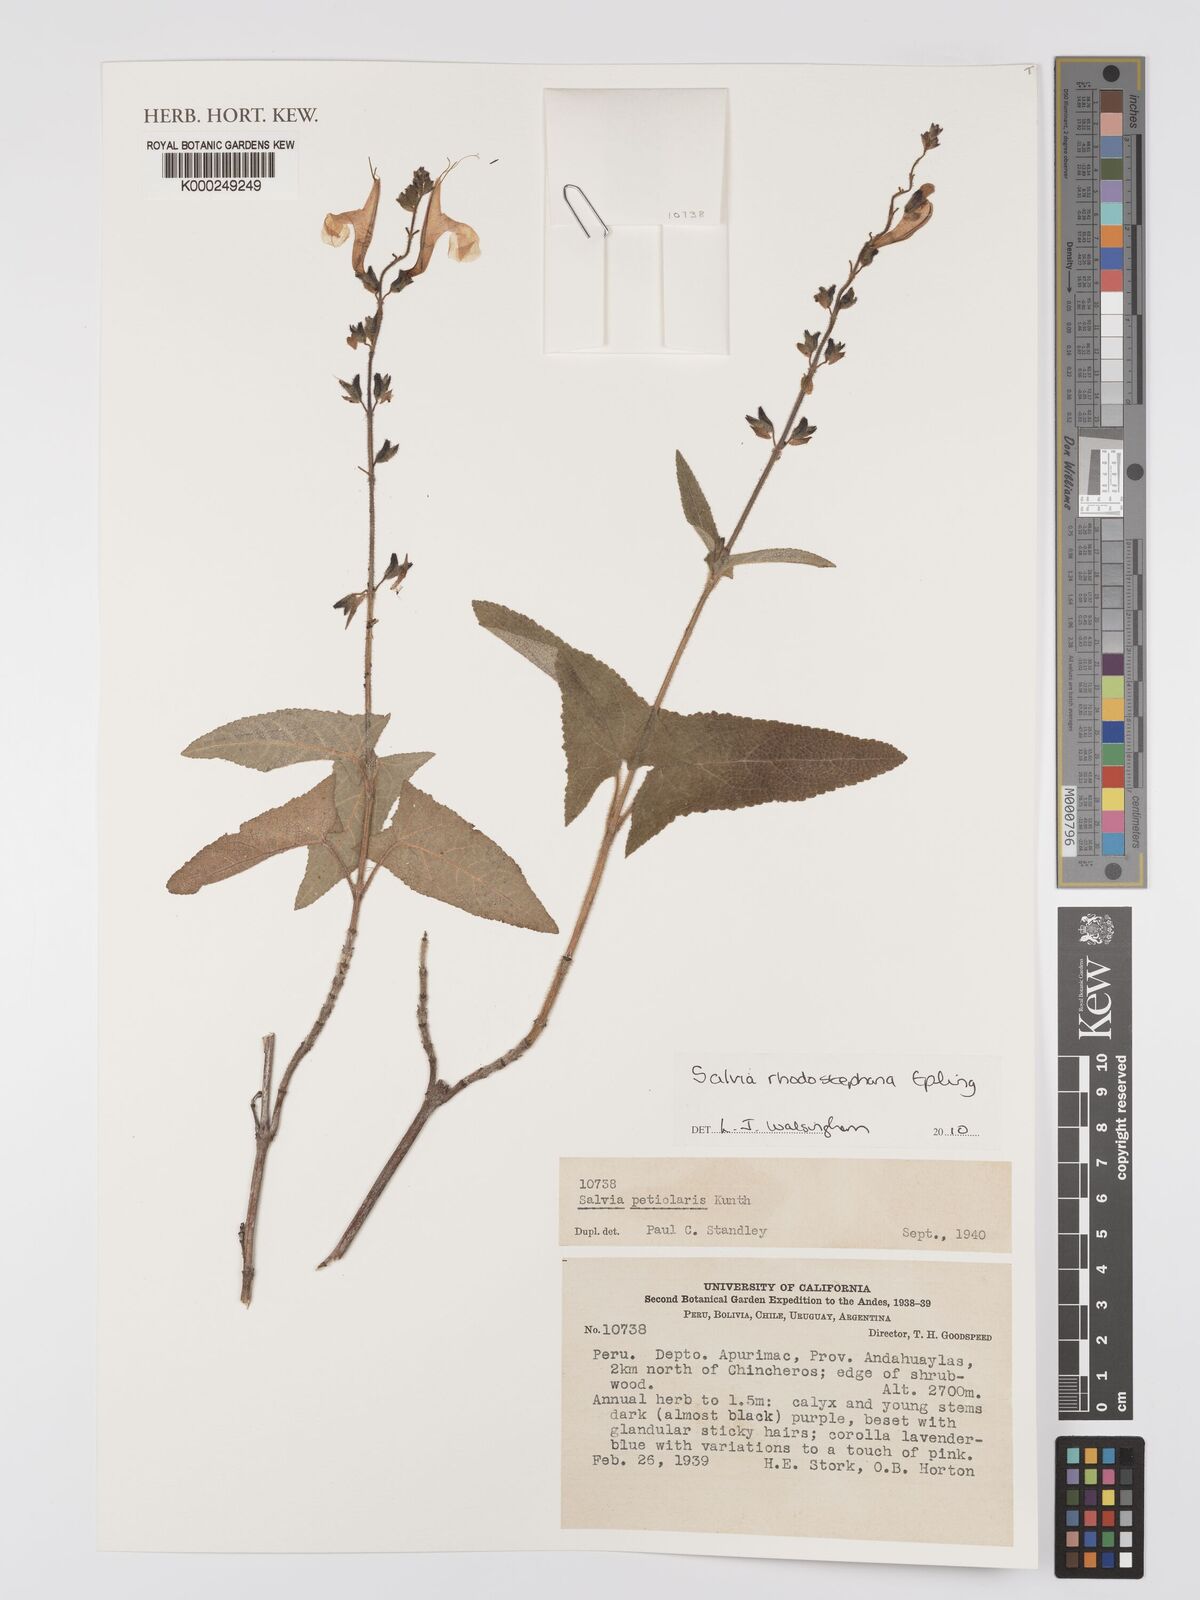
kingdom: Plantae
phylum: Tracheophyta
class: Magnoliopsida
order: Lamiales
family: Lamiaceae
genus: Salvia
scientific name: Salvia rhodostephana
